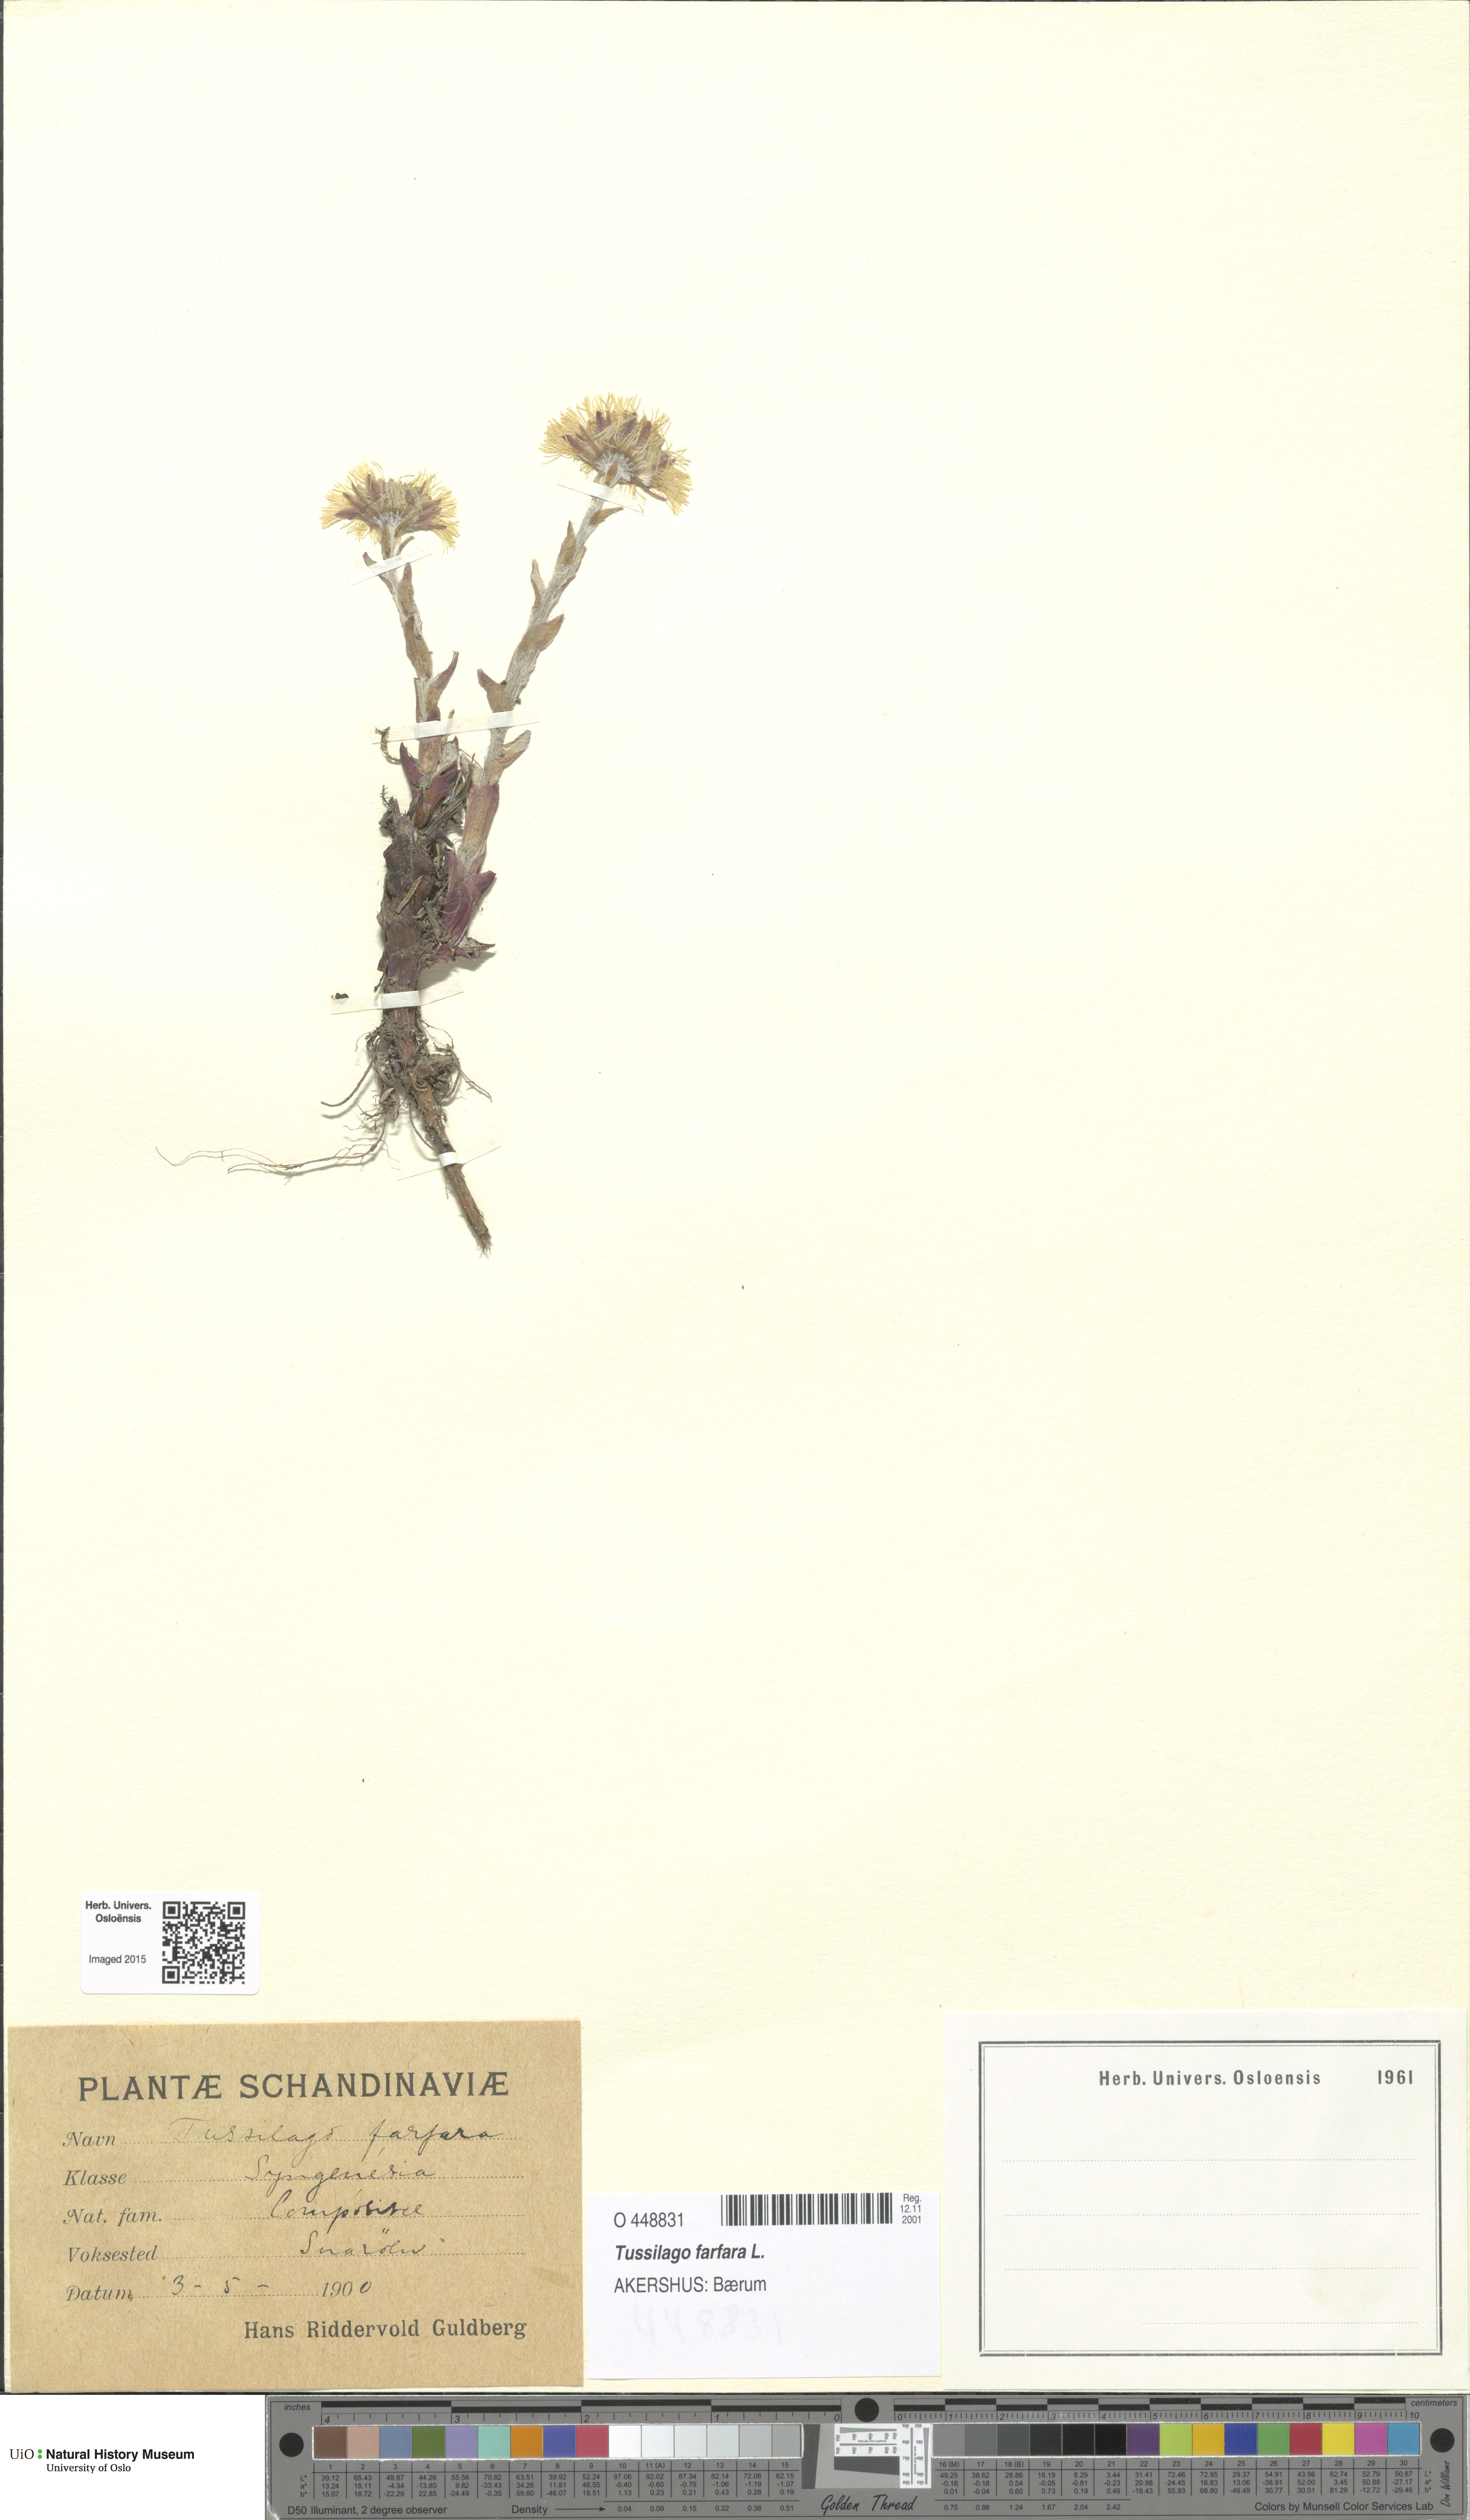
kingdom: Plantae
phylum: Tracheophyta
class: Magnoliopsida
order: Asterales
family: Asteraceae
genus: Tussilago
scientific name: Tussilago farfara
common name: Coltsfoot
